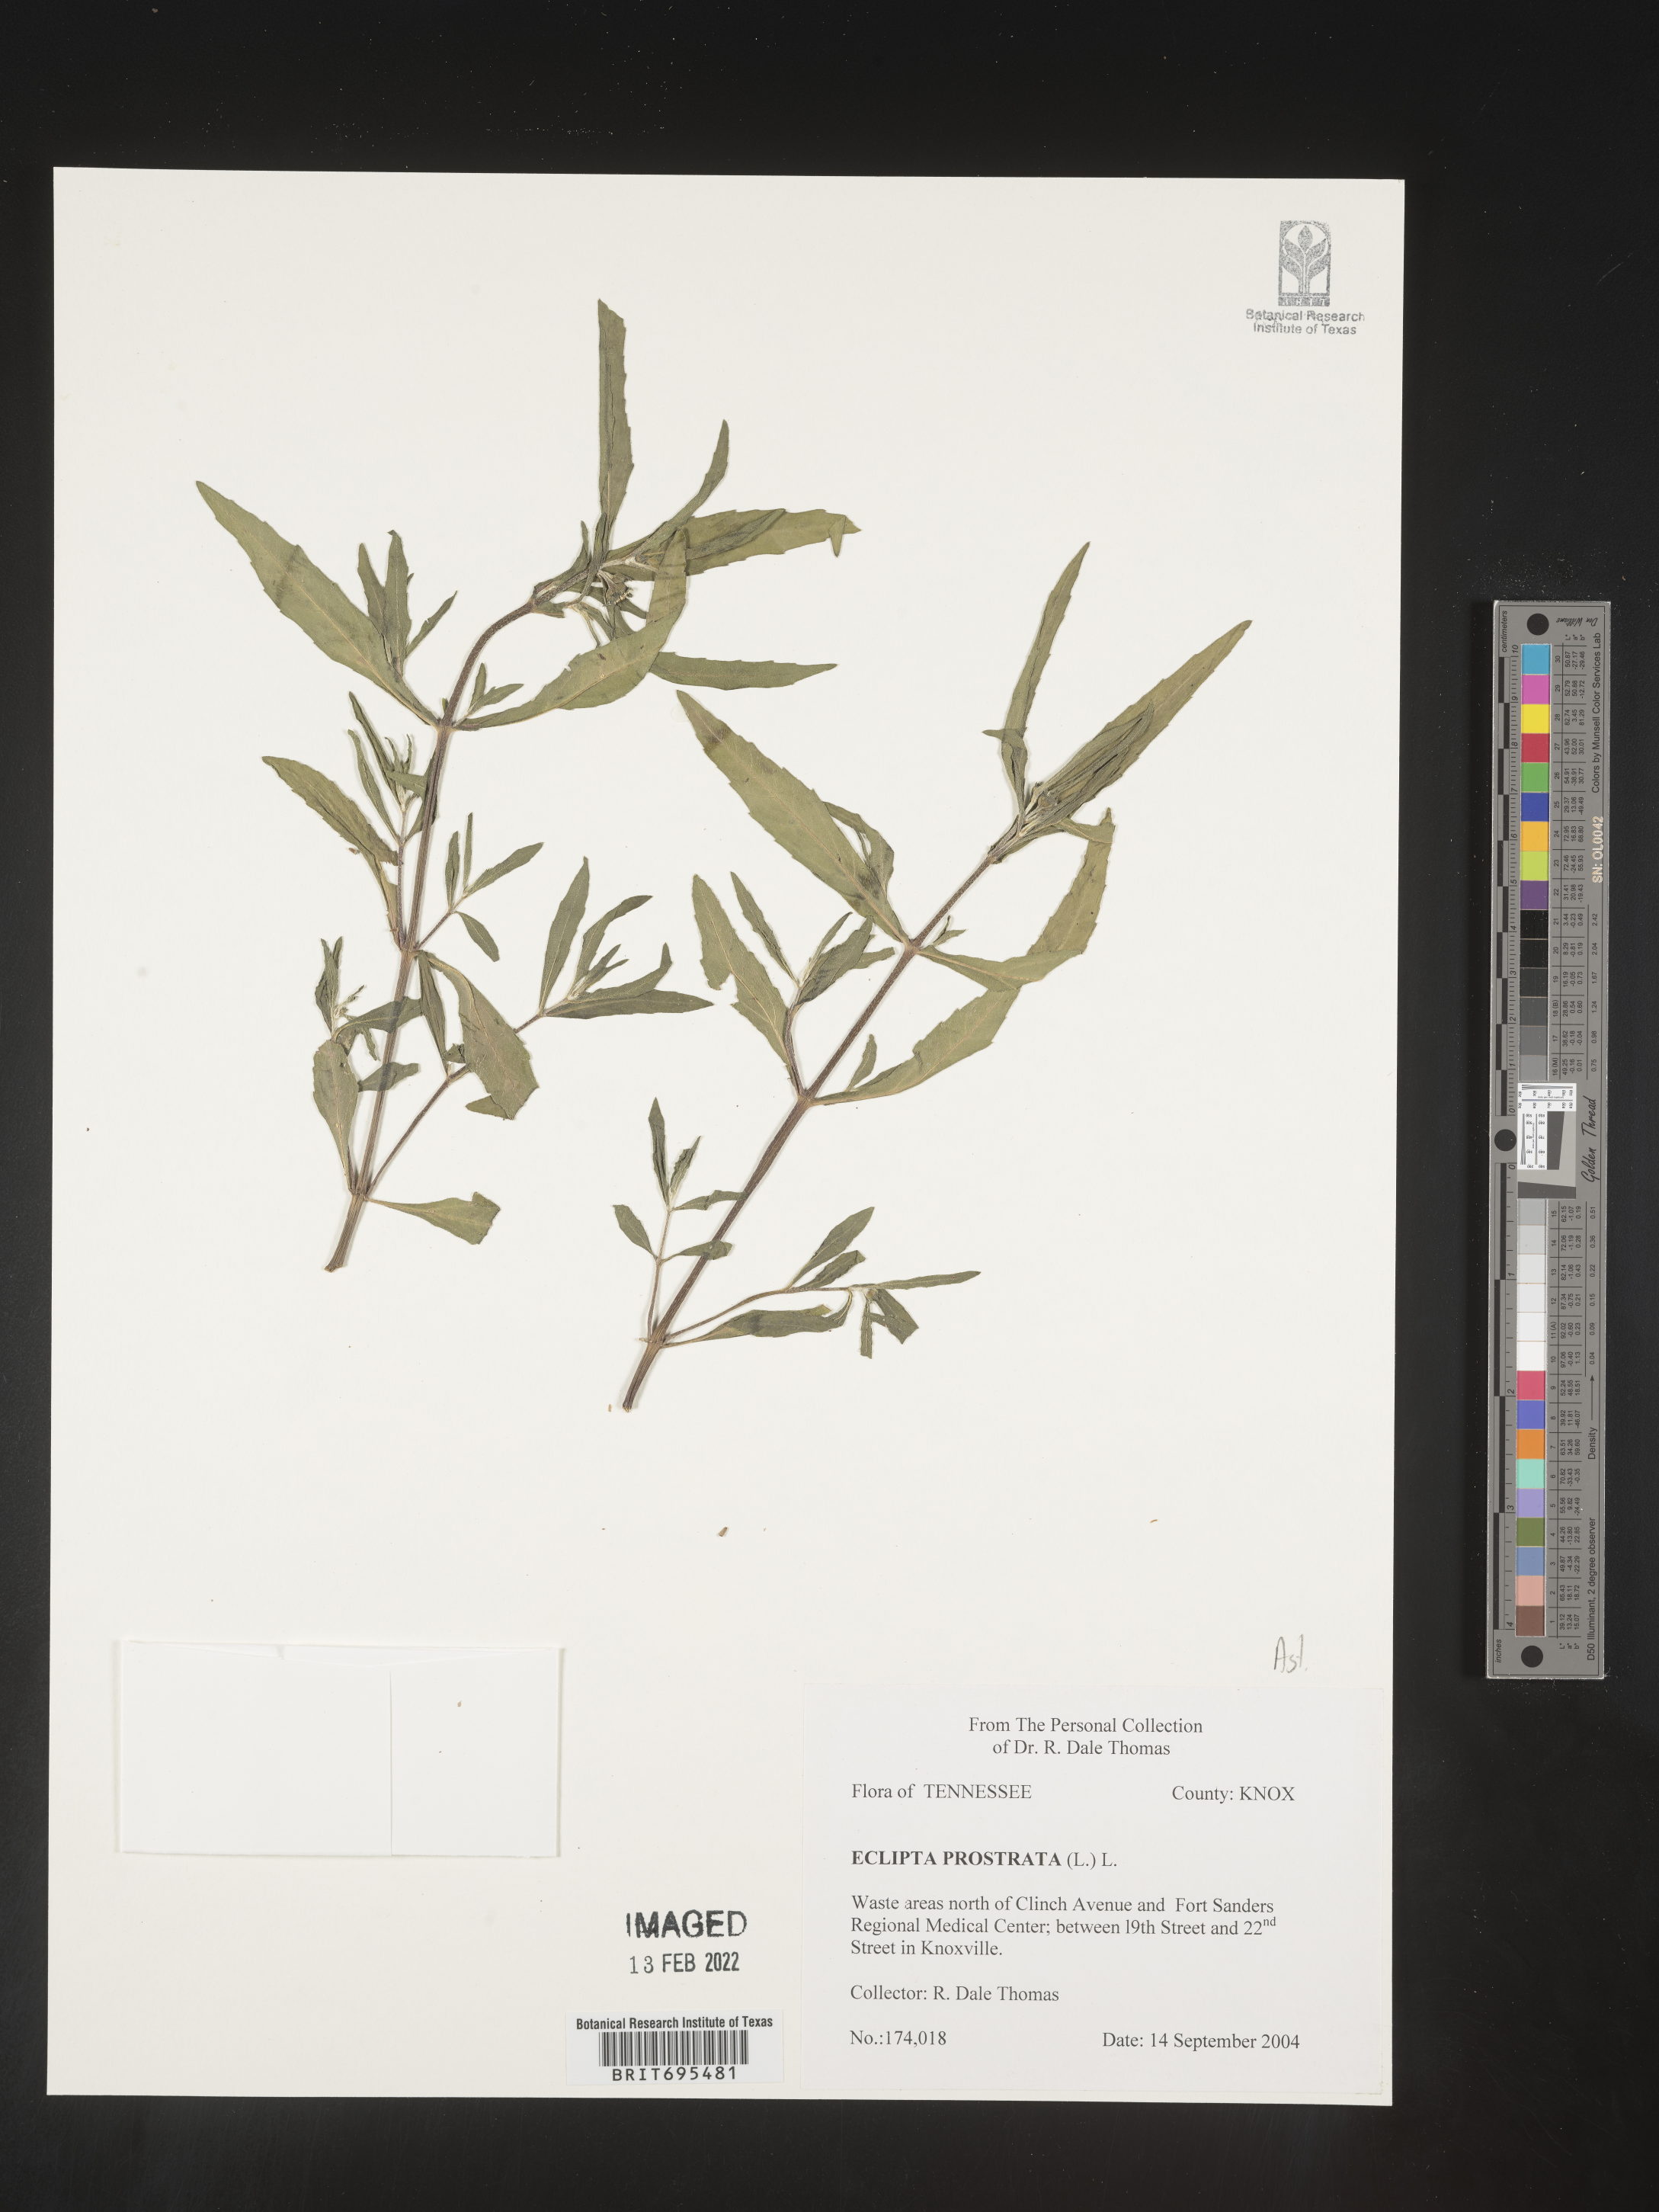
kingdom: Plantae
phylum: Tracheophyta
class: Magnoliopsida
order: Asterales
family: Asteraceae
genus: Eclipta
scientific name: Eclipta prostrata
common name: False daisy
